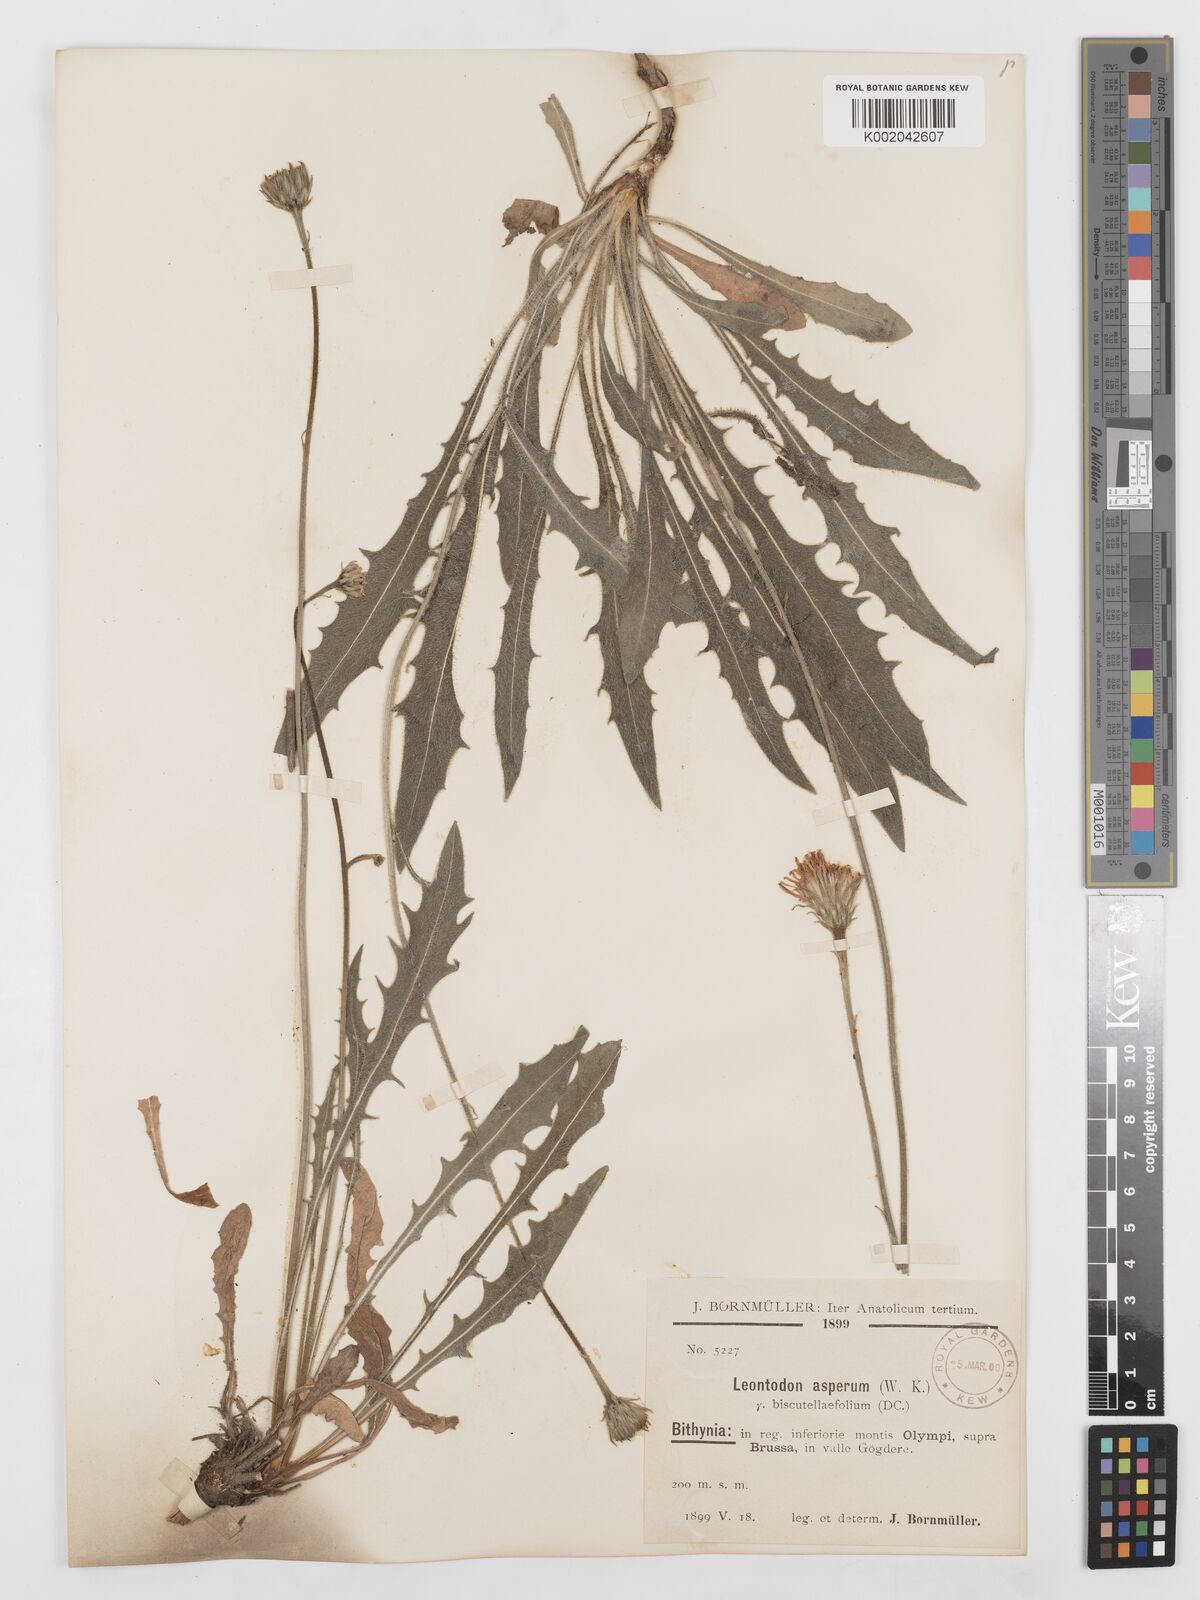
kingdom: Plantae
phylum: Tracheophyta
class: Magnoliopsida
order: Asterales
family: Asteraceae
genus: Leontodon
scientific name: Leontodon
